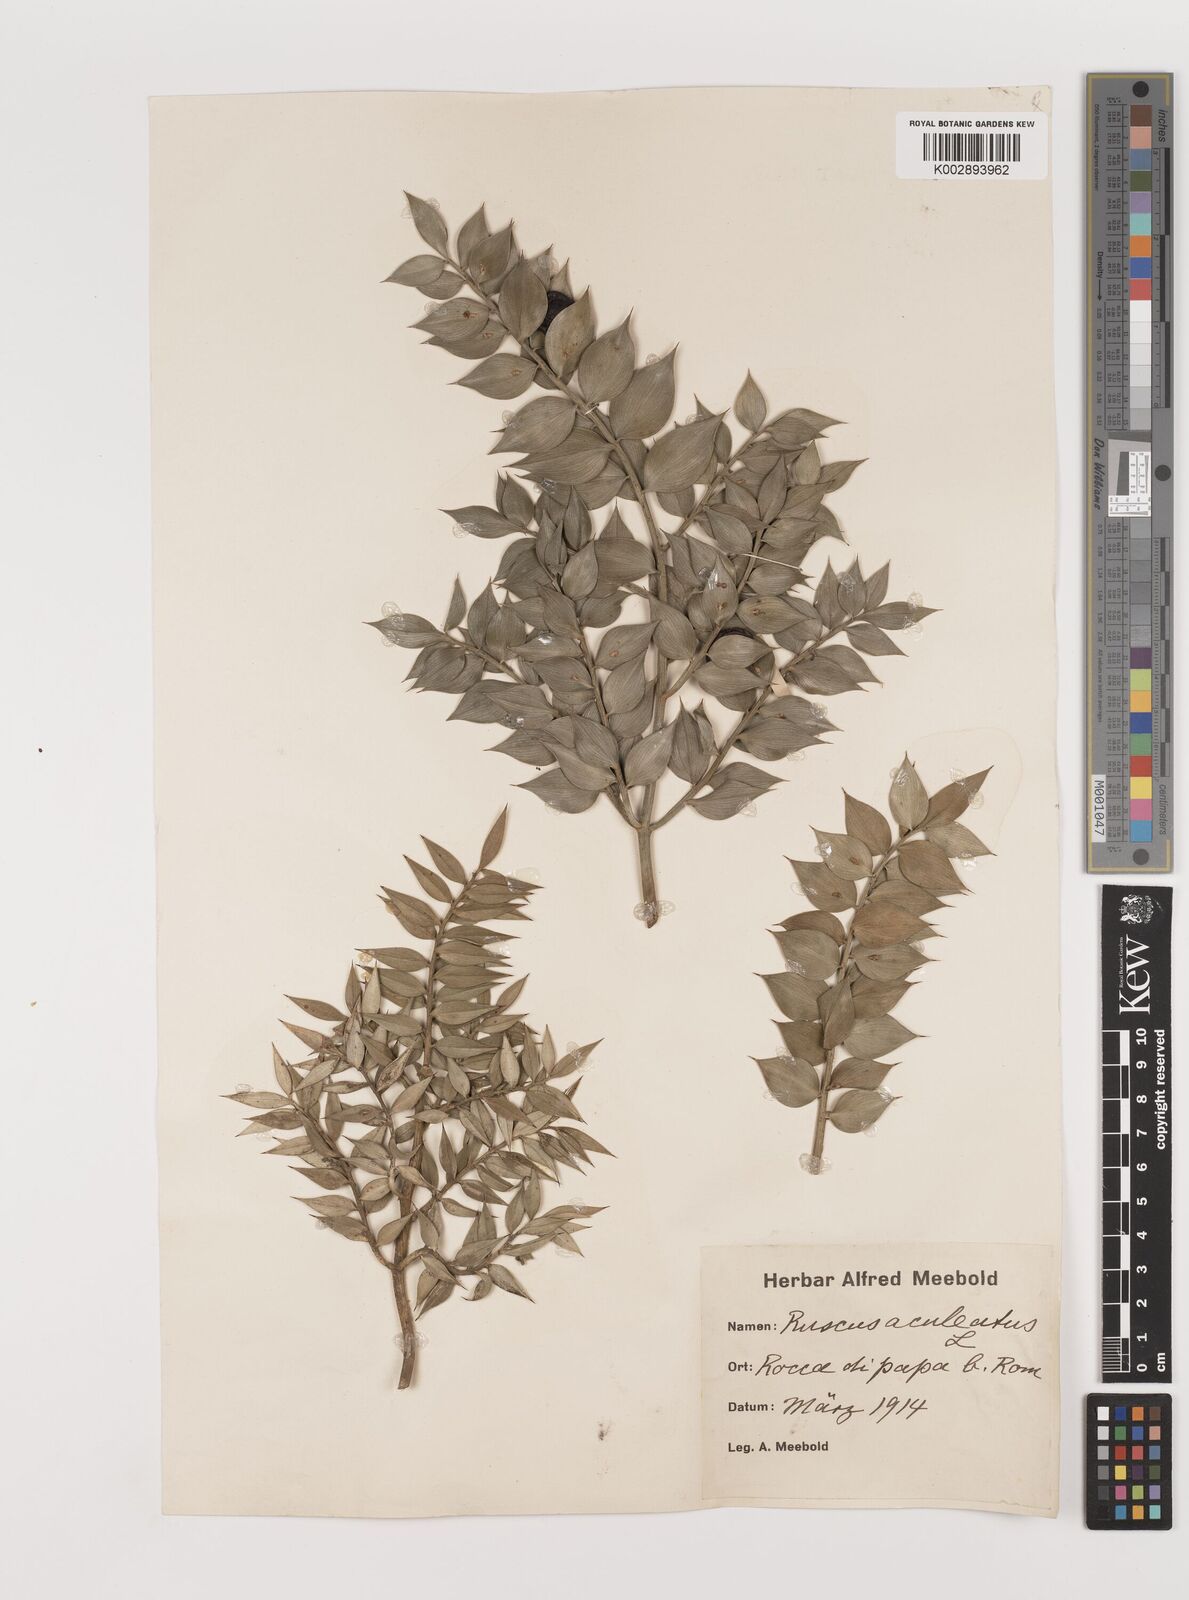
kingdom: Plantae
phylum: Tracheophyta
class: Liliopsida
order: Asparagales
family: Asparagaceae
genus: Ruscus
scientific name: Ruscus
